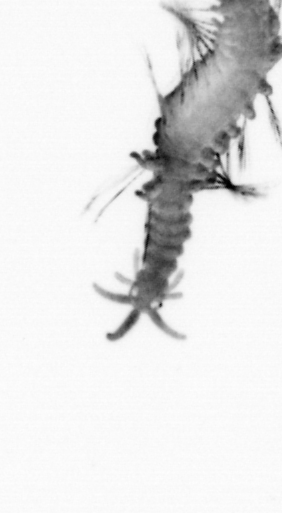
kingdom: Animalia
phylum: Annelida
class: Polychaeta
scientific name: Polychaeta
